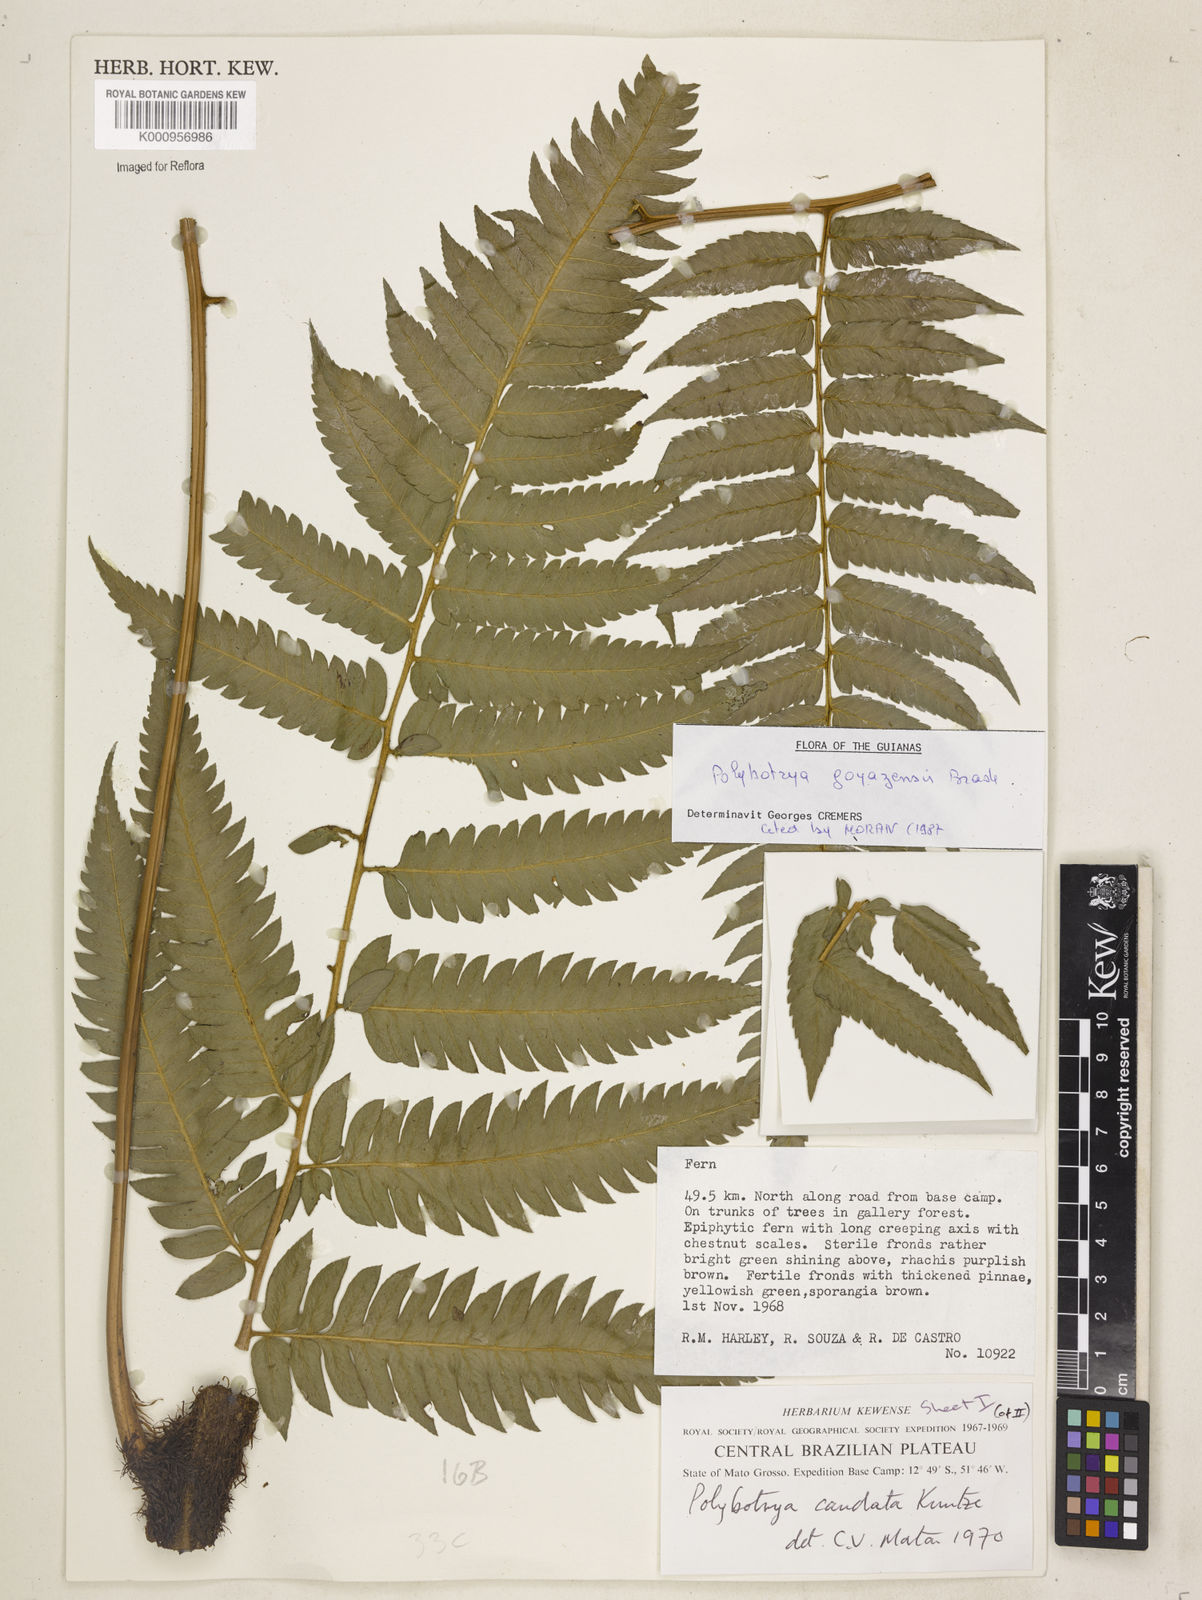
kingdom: Plantae
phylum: Tracheophyta
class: Polypodiopsida
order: Polypodiales
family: Dryopteridaceae
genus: Polybotrya
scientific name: Polybotrya goyazensis
